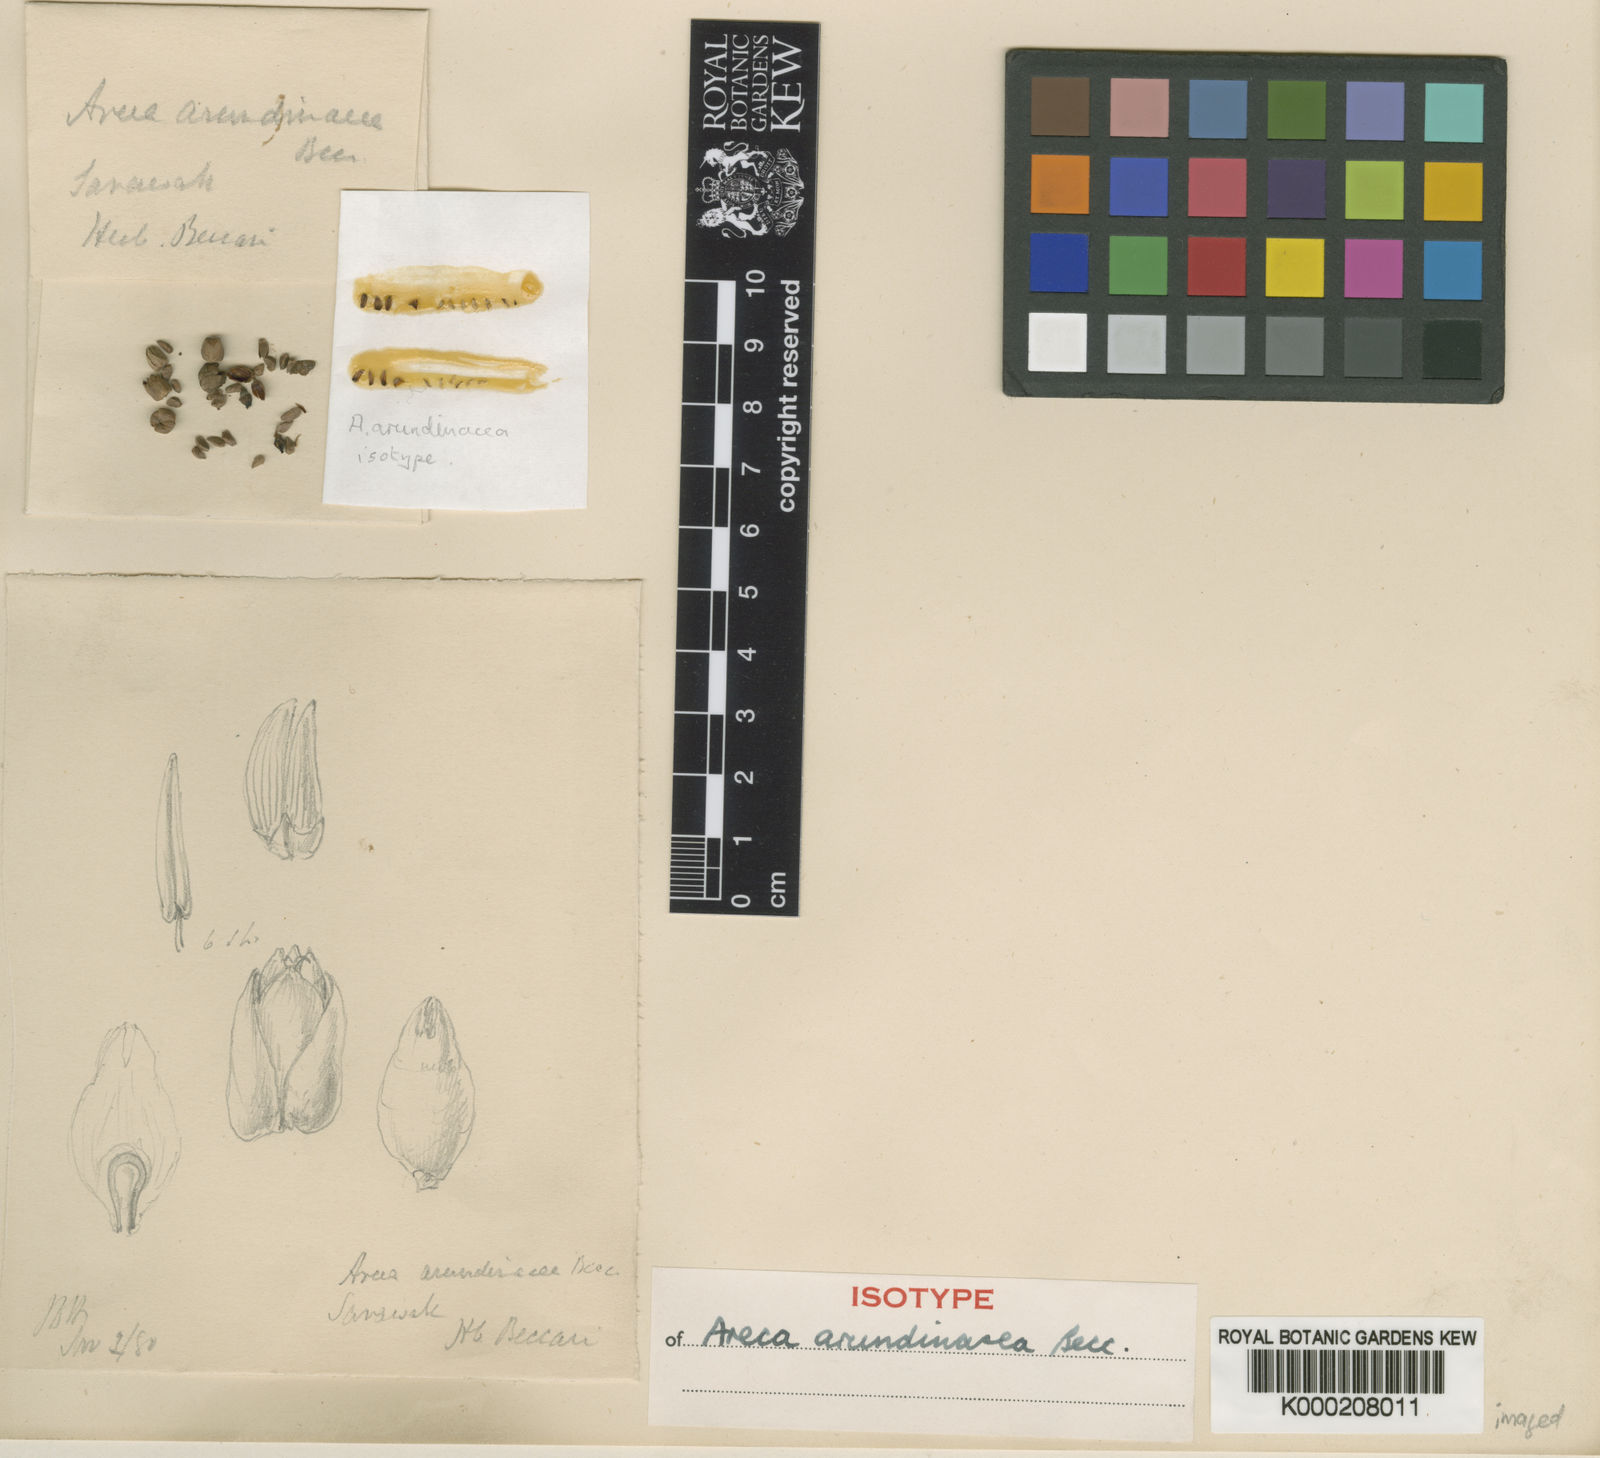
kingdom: Plantae
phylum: Tracheophyta
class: Liliopsida
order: Arecales
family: Arecaceae
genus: Areca
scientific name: Areca arundinacea
